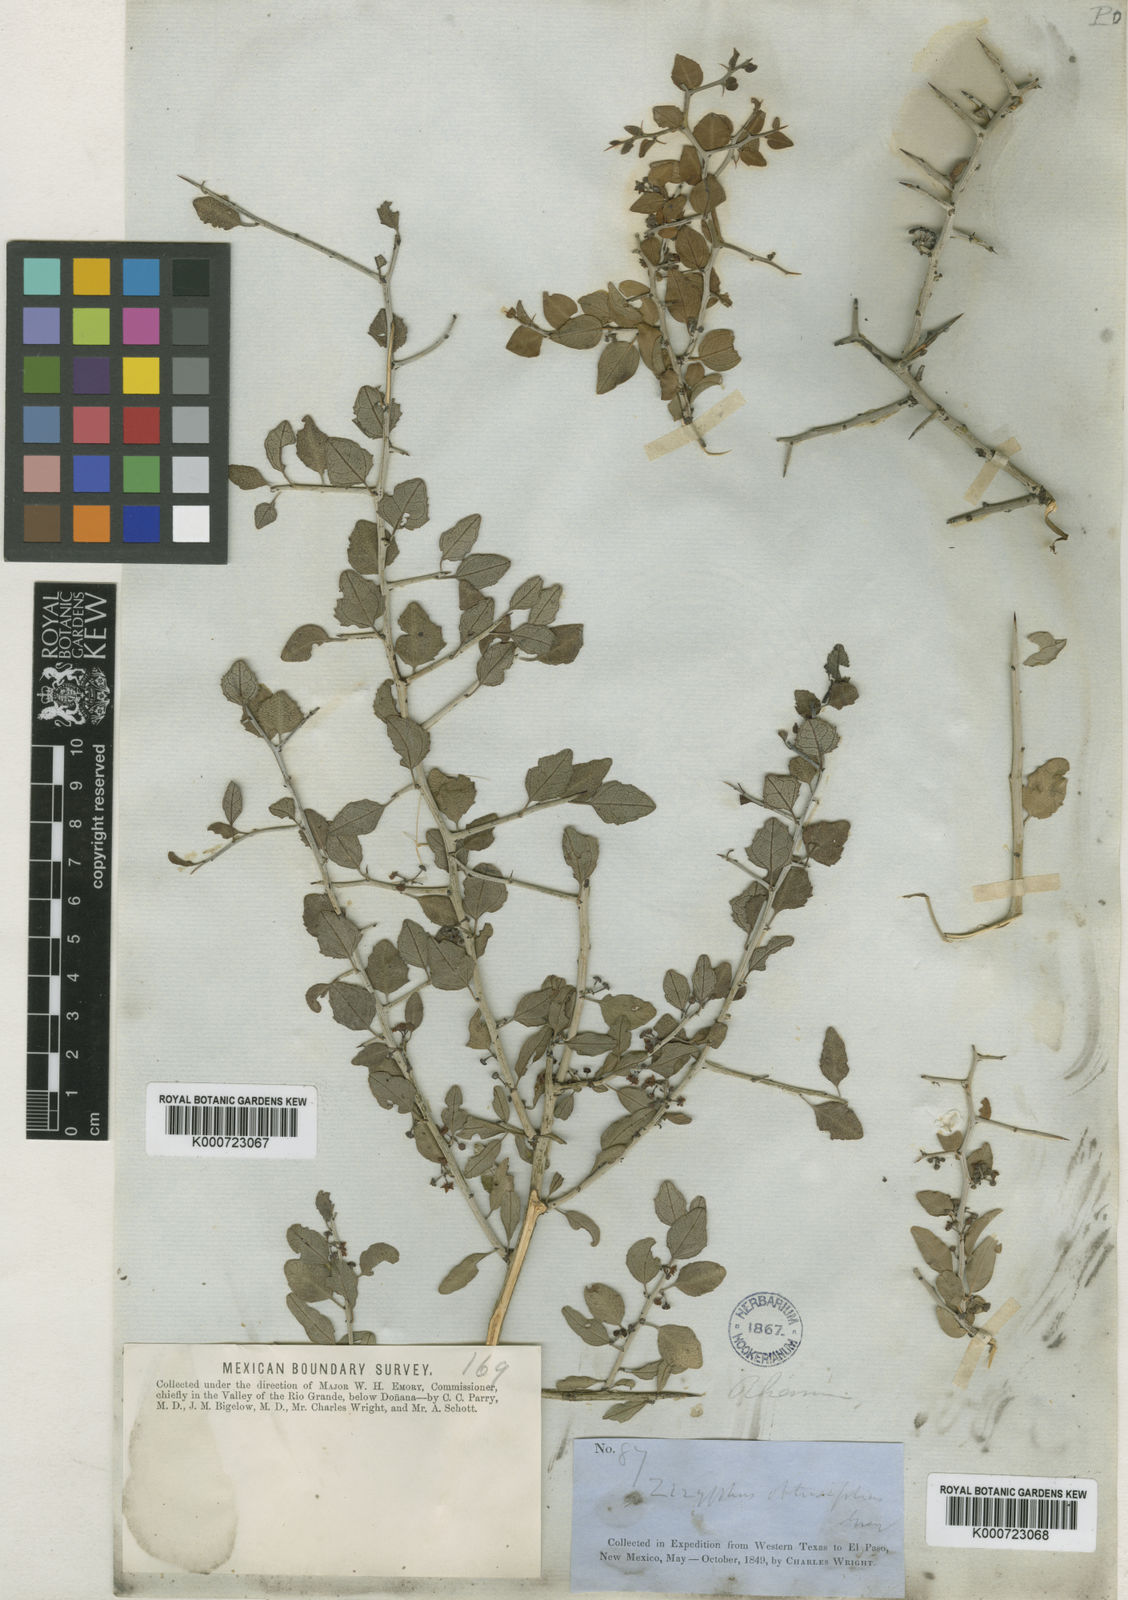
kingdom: Plantae
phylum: Tracheophyta
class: Magnoliopsida
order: Rosales
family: Rhamnaceae
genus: Sarcomphalus
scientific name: Sarcomphalus obtusifolius
